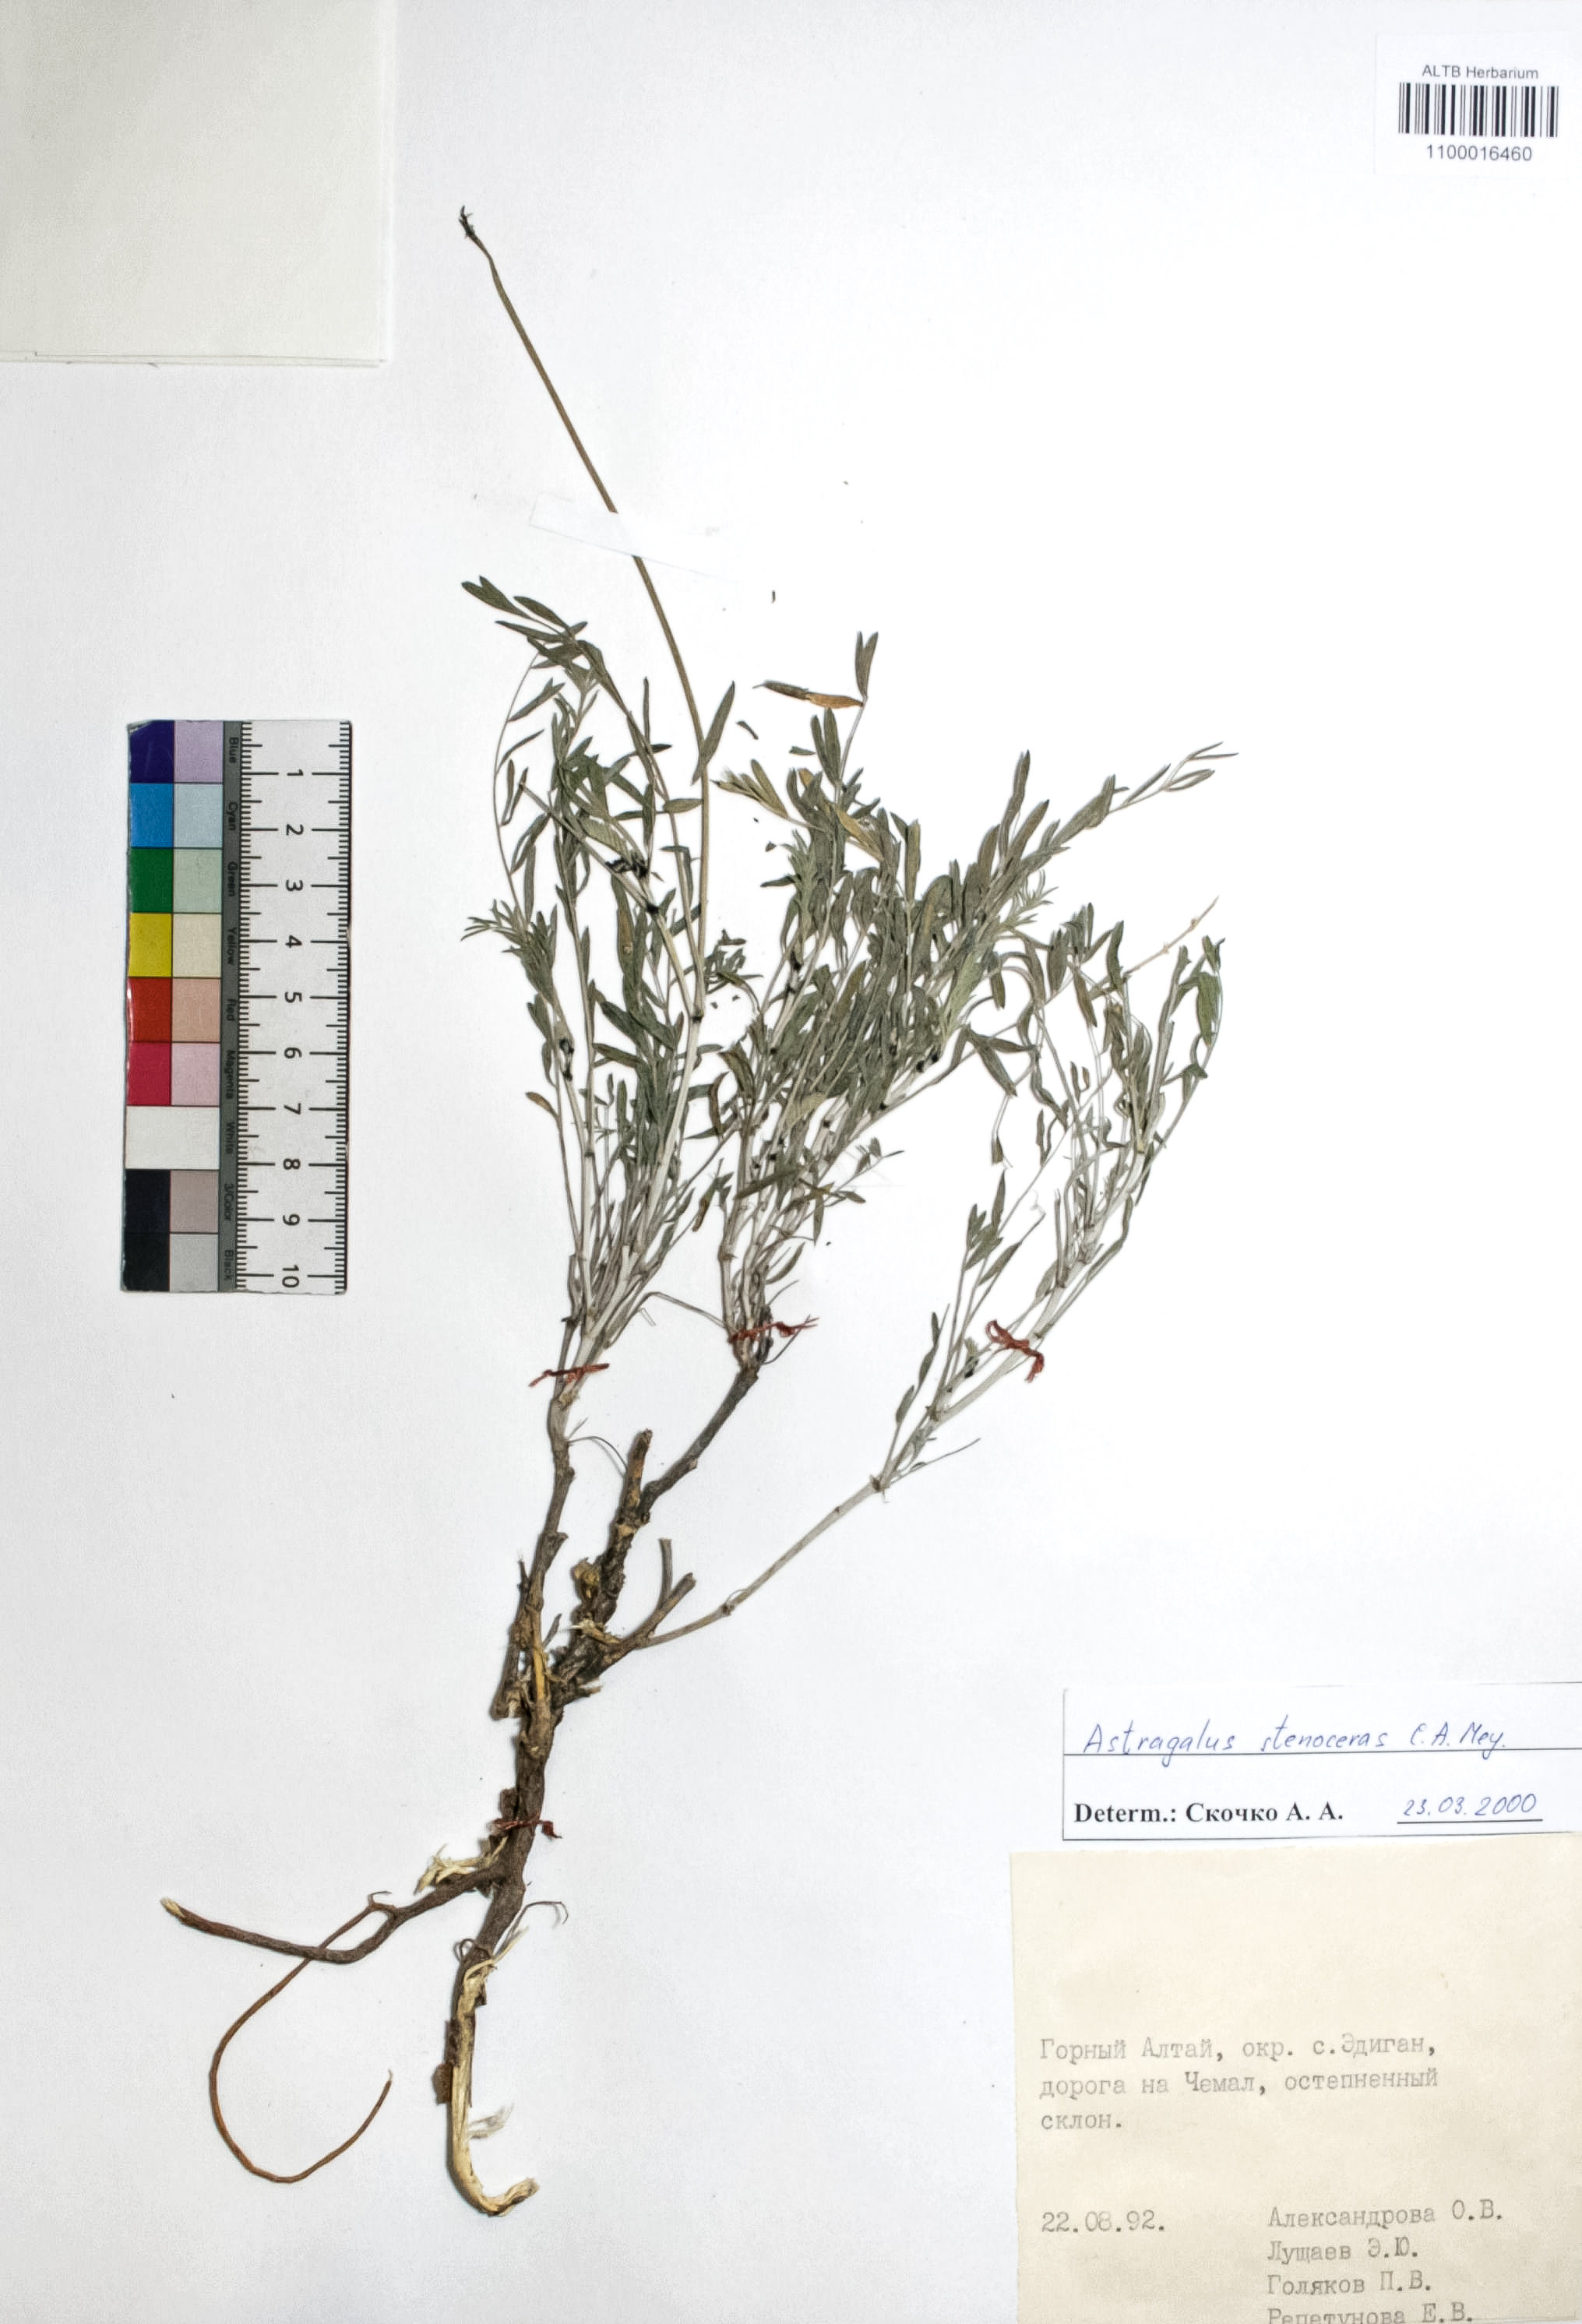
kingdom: Plantae
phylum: Tracheophyta
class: Magnoliopsida
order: Fabales
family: Fabaceae
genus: Astragalus
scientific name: Astragalus stenoceras
